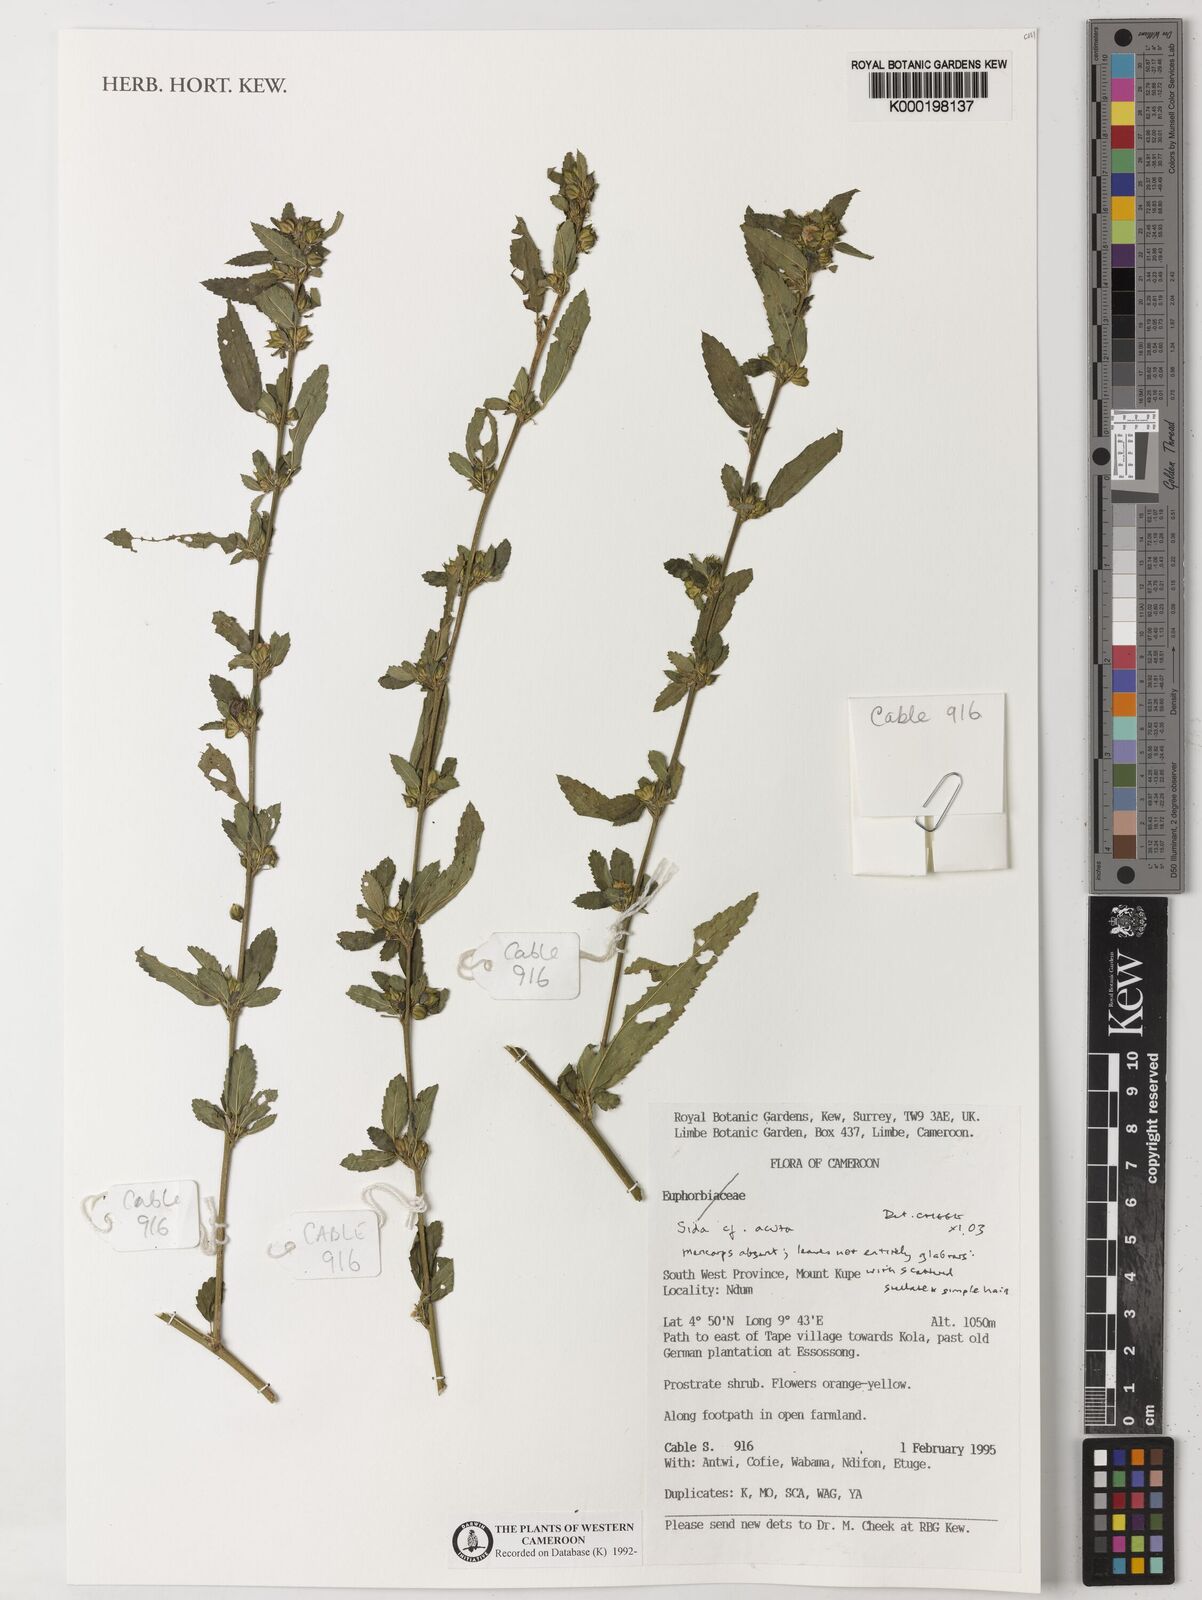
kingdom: Plantae
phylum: Tracheophyta
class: Magnoliopsida
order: Malvales
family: Malvaceae
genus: Sida
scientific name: Sida acuta
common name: Common wireweed
